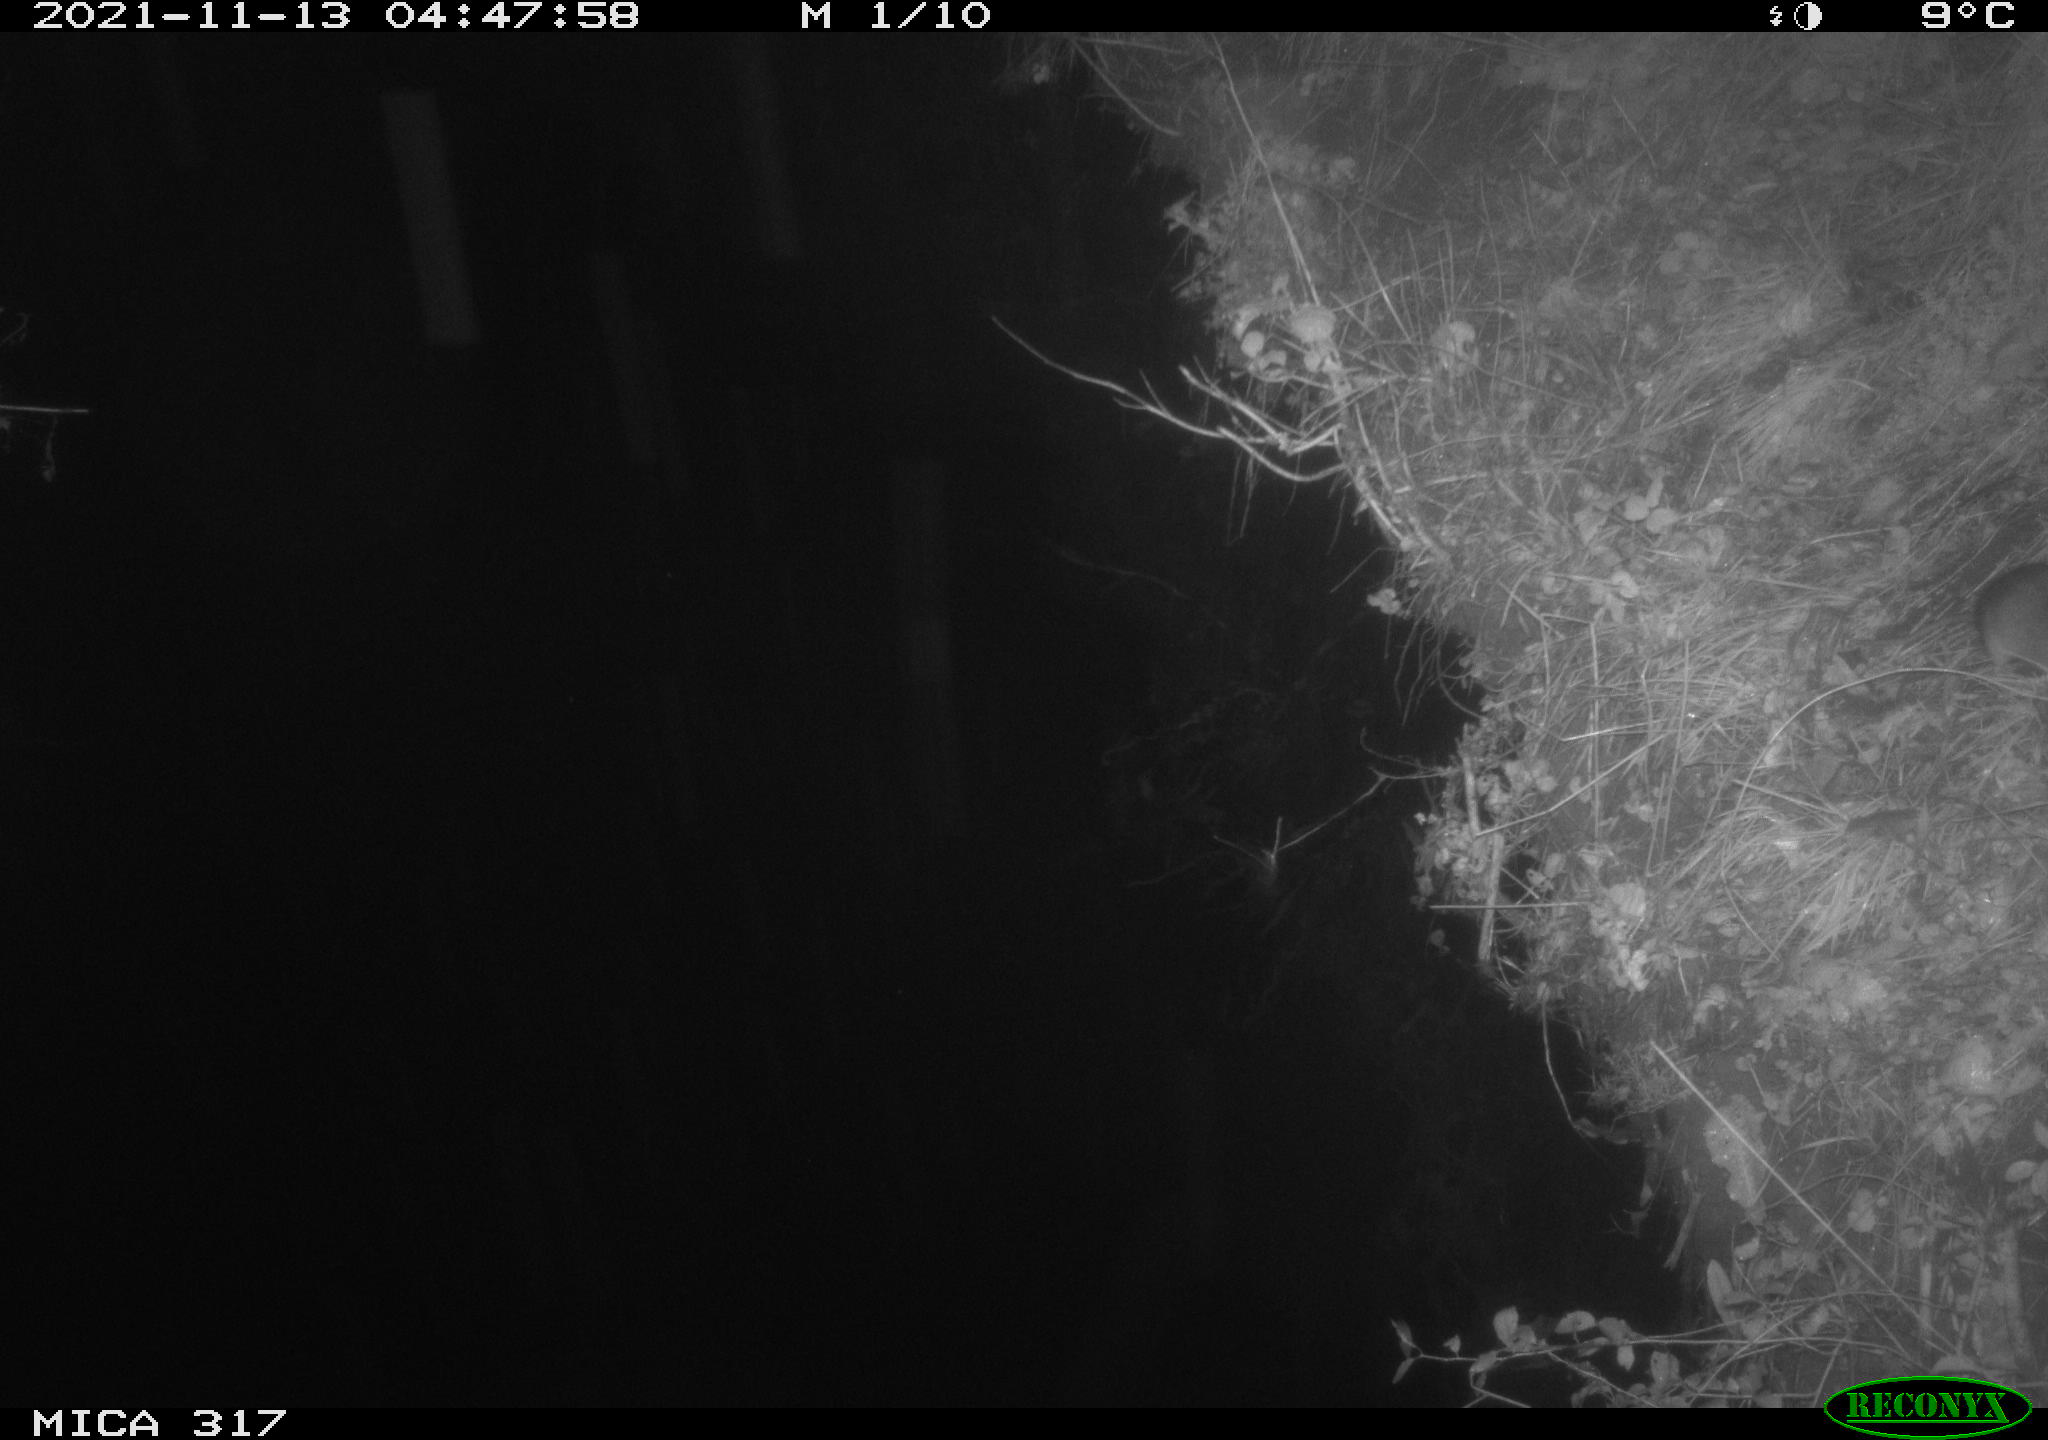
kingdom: Animalia
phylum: Chordata
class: Mammalia
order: Rodentia
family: Muridae
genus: Rattus
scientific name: Rattus norvegicus
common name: Brown rat
